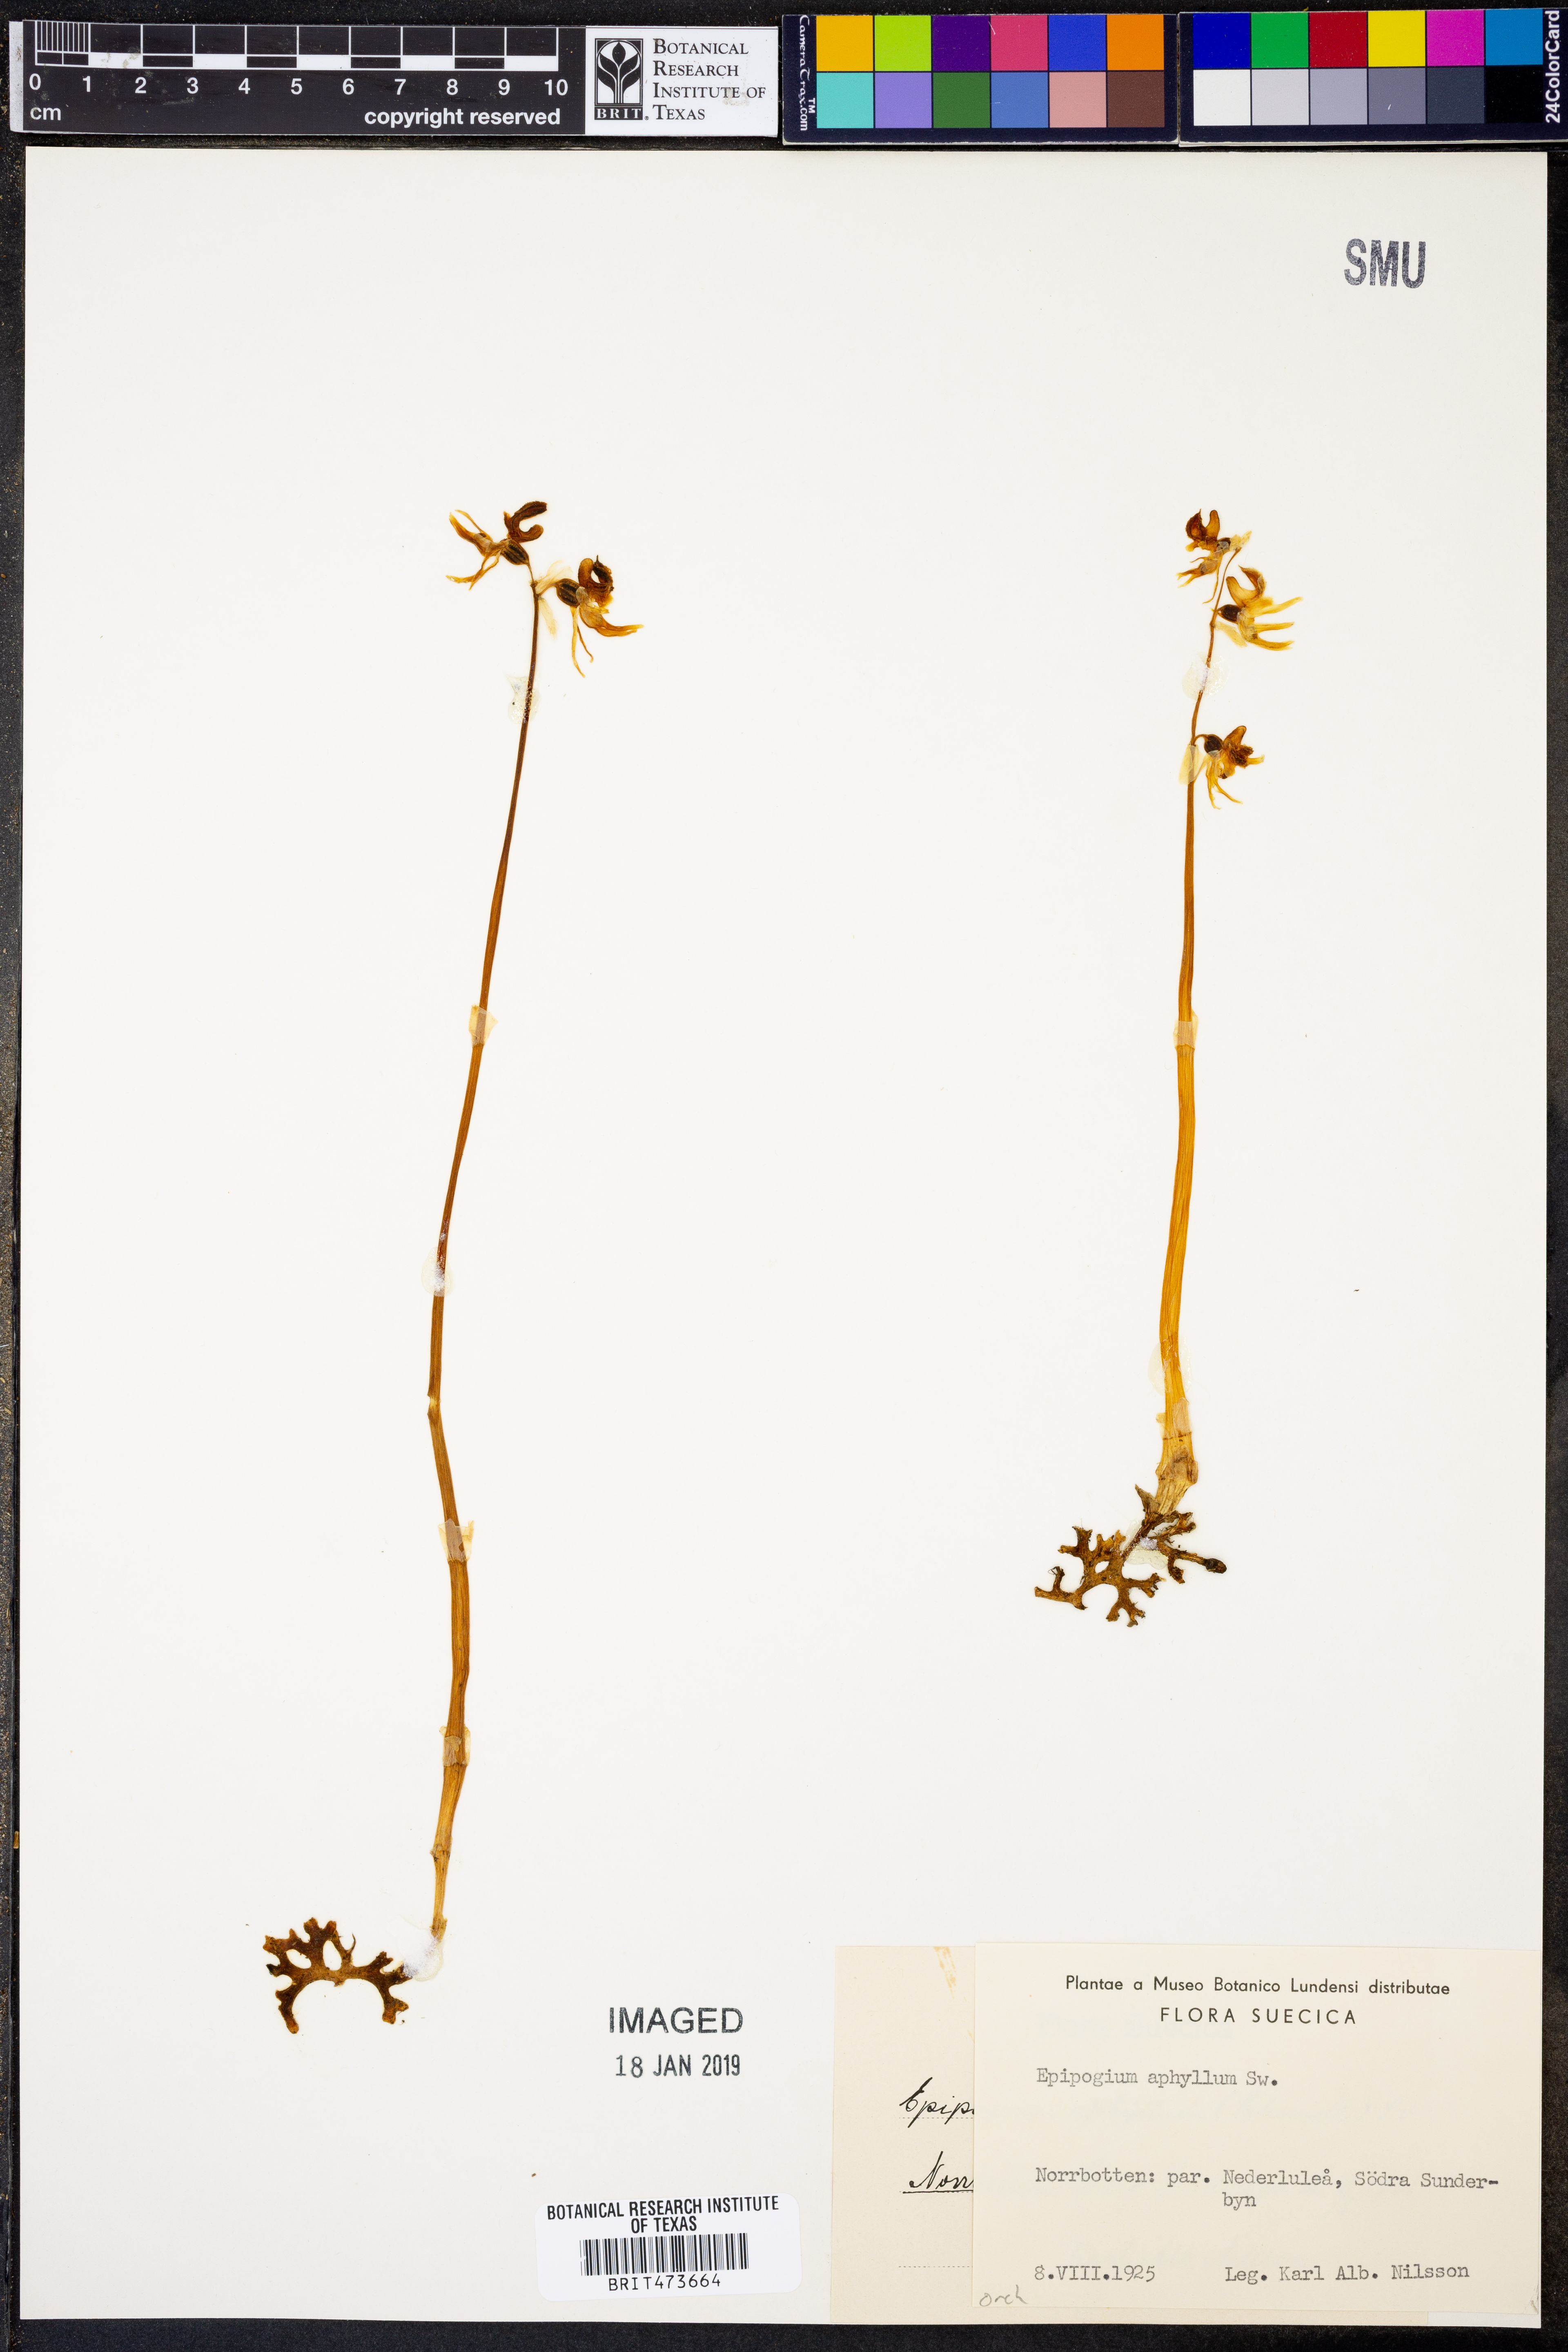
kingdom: Plantae
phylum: Tracheophyta
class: Liliopsida
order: Asparagales
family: Orchidaceae
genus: Epipogium
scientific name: Epipogium aphyllum
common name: Ghost orchid
